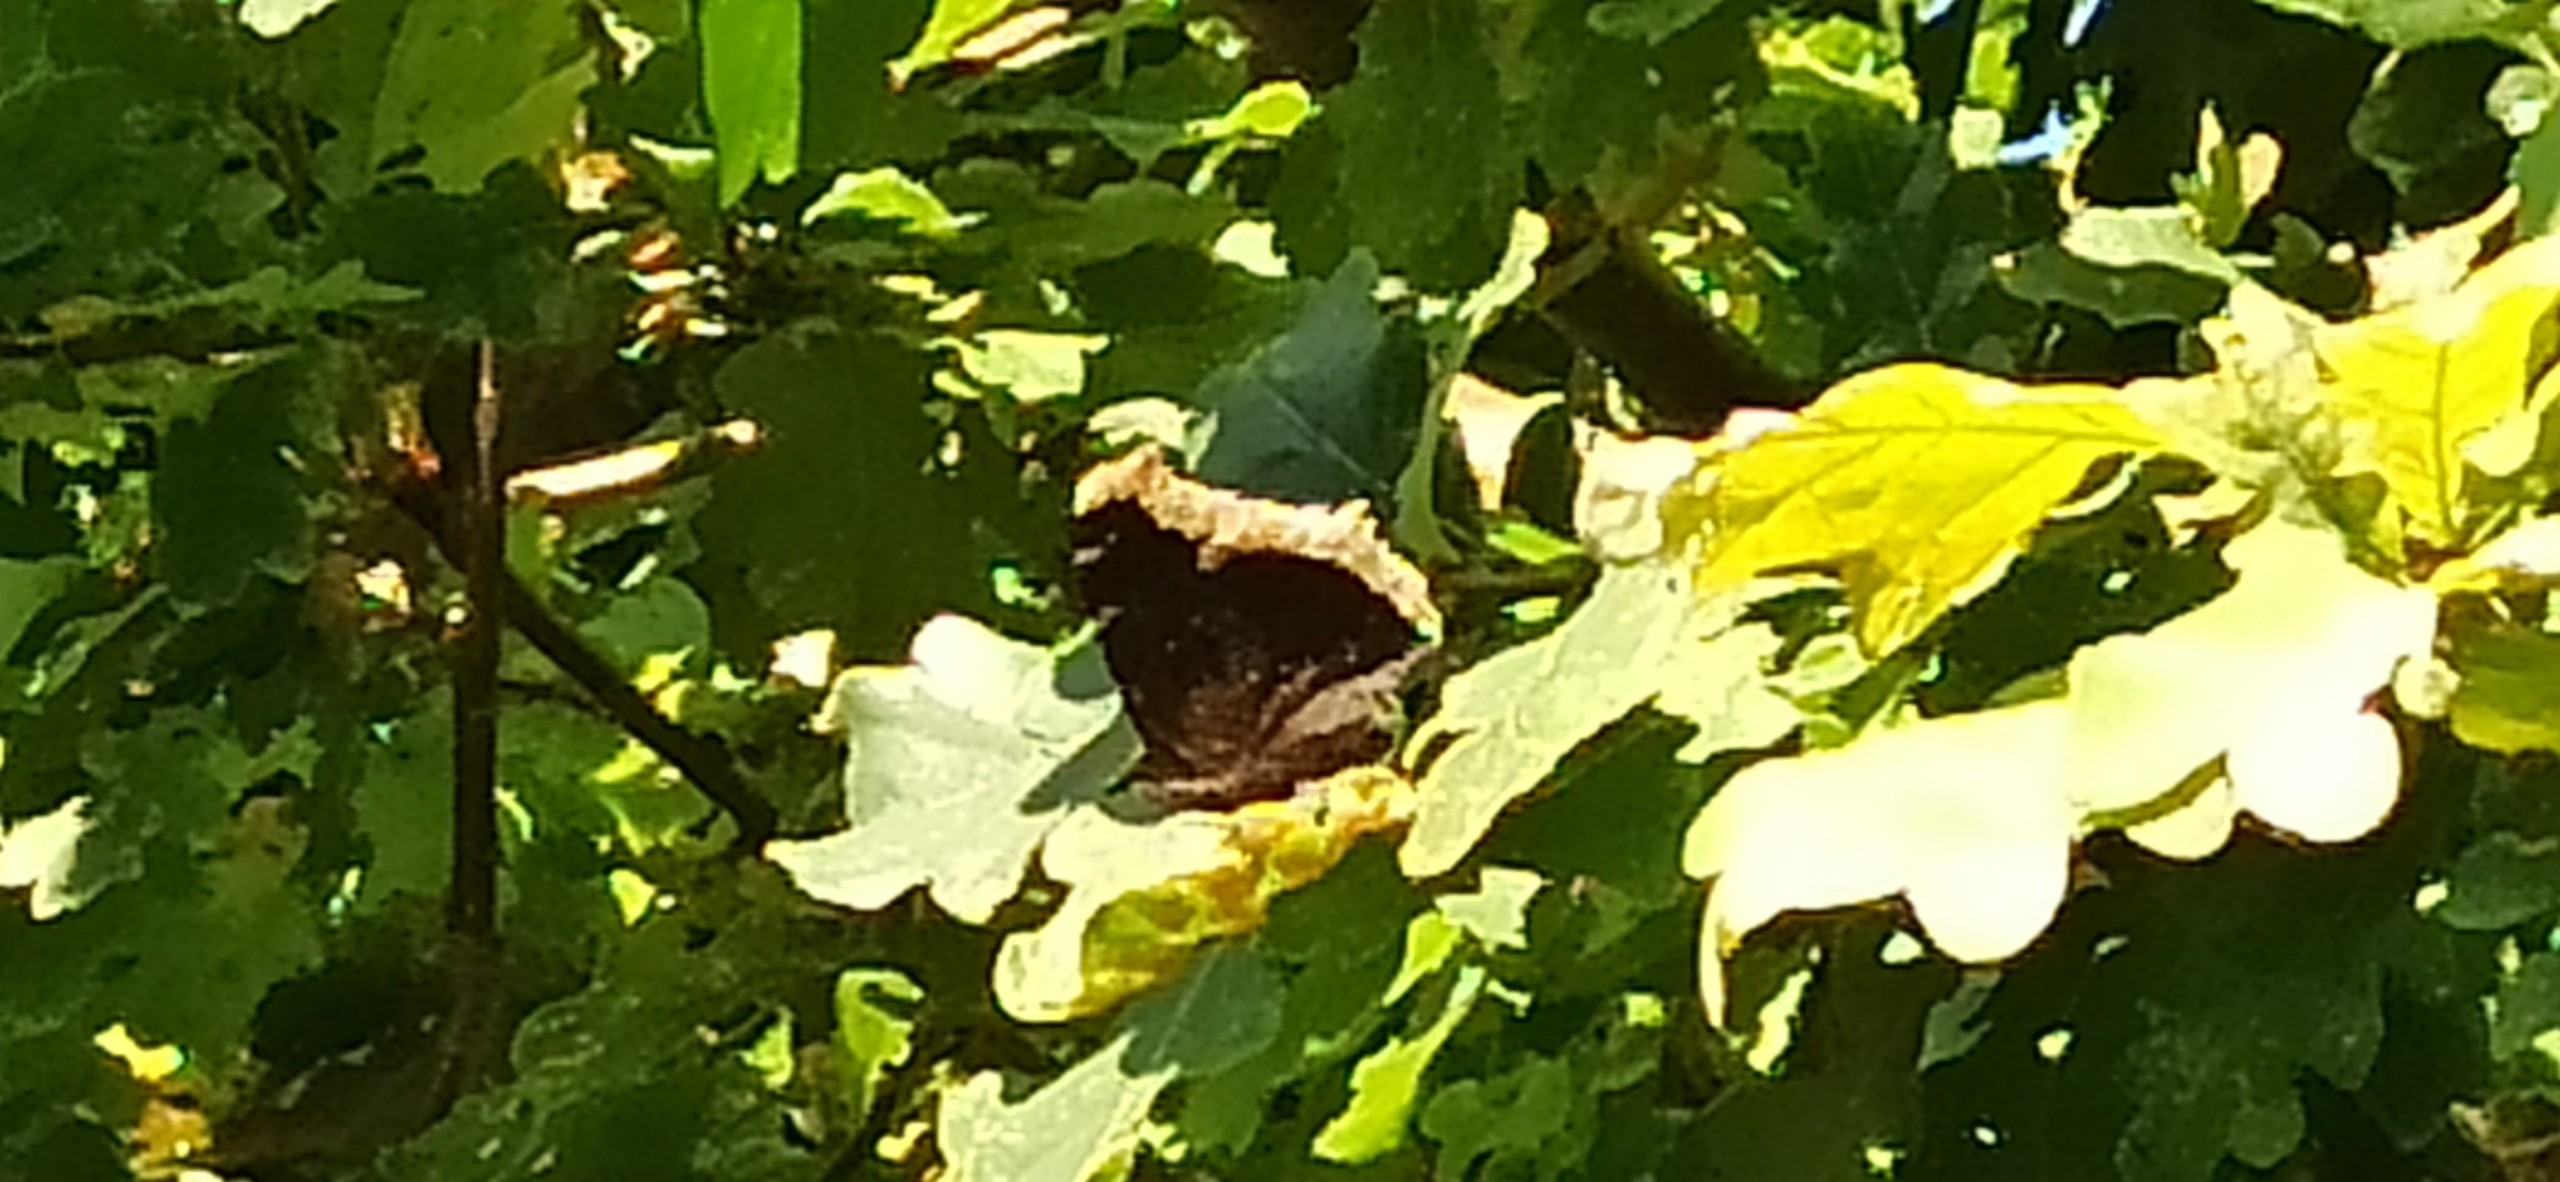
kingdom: Animalia
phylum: Arthropoda
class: Insecta
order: Lepidoptera
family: Nymphalidae
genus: Nymphalis
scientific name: Nymphalis antiopa
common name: Sørgekåbe
